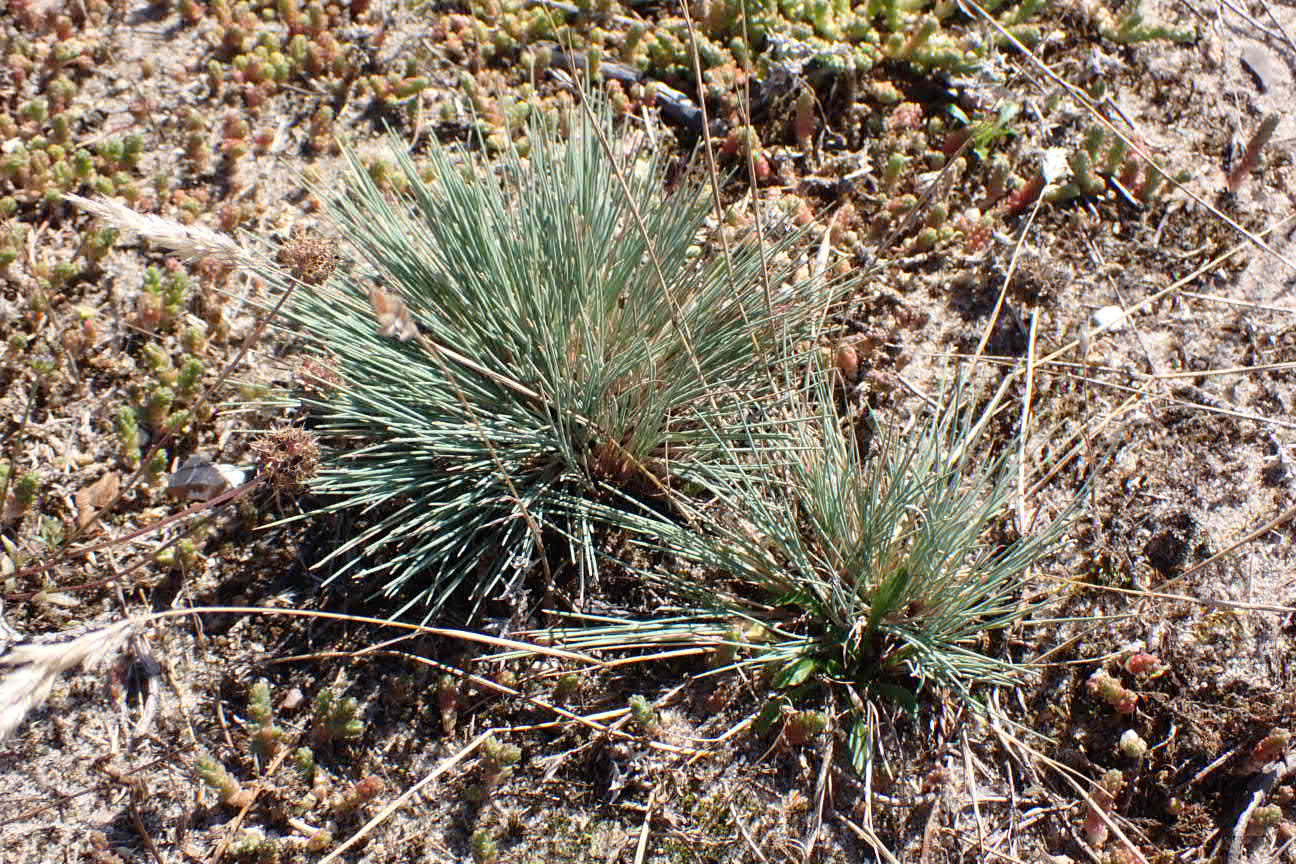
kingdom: Plantae
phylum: Tracheophyta
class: Liliopsida
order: Poales
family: Poaceae
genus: Corynephorus
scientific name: Corynephorus canescens
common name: Sandskæg
